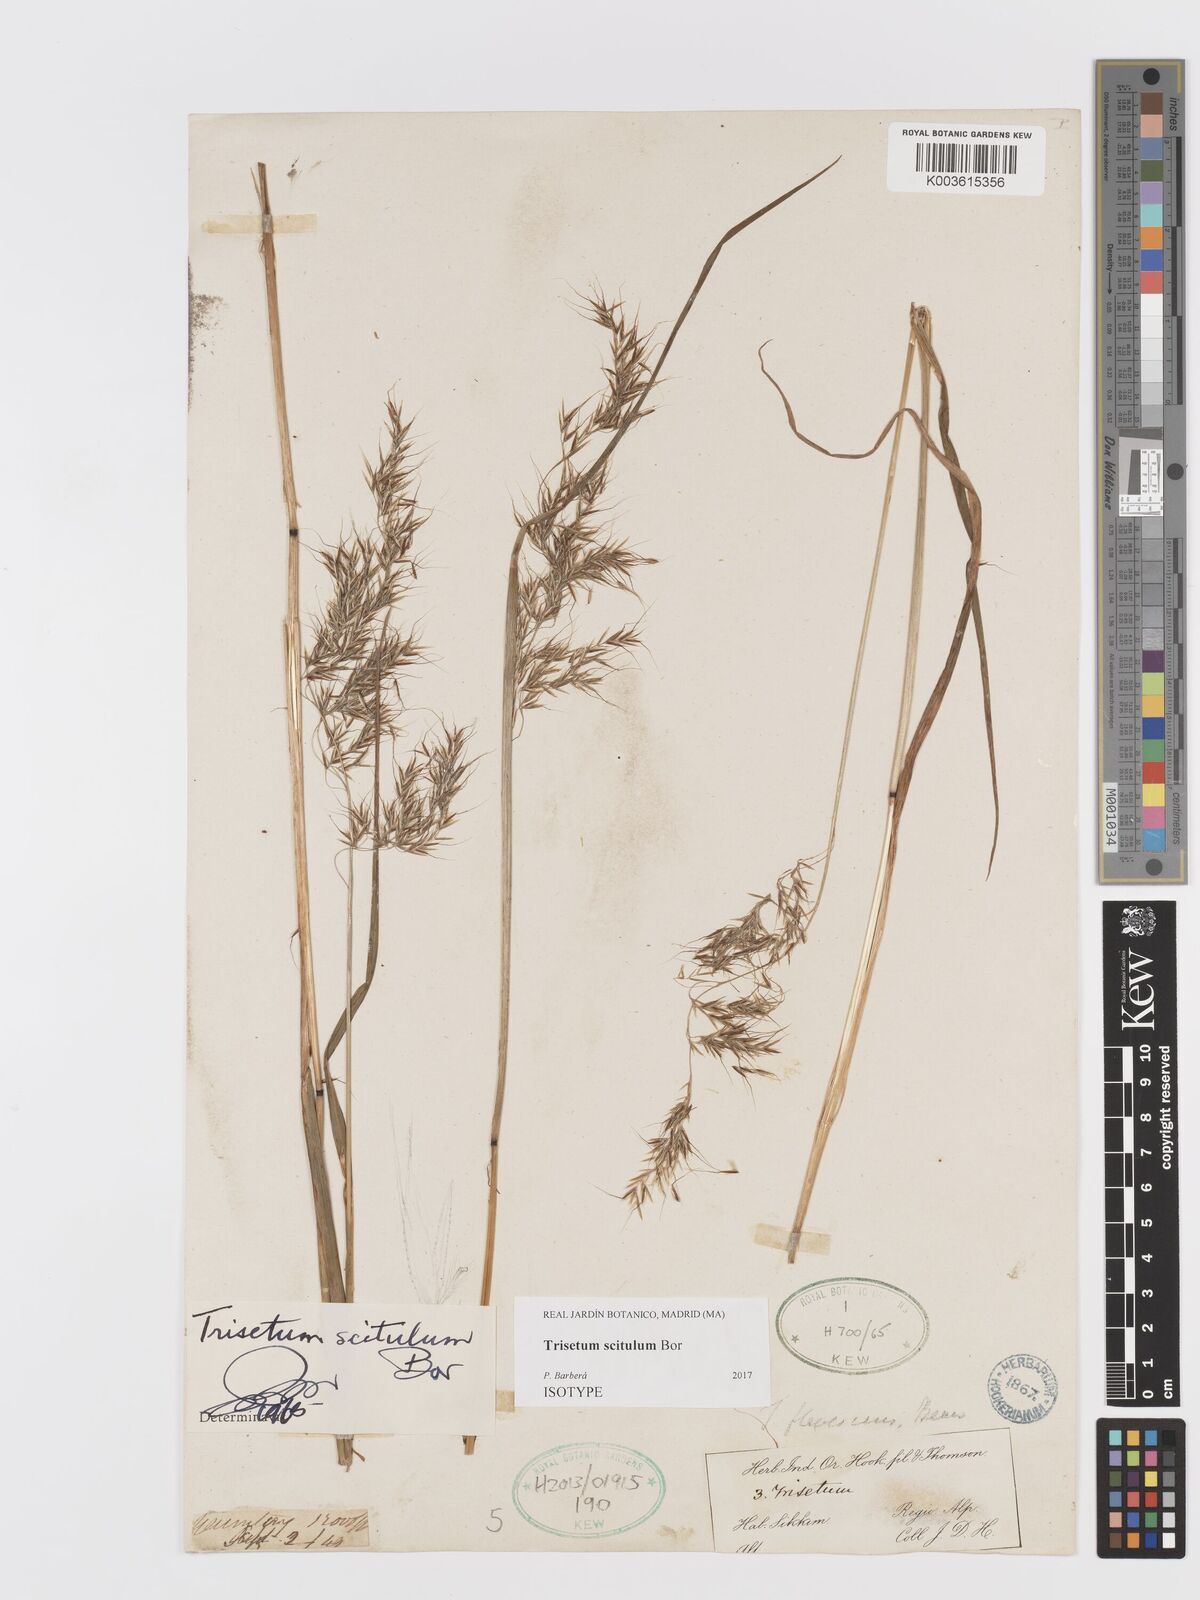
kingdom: Plantae
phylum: Tracheophyta
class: Liliopsida
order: Poales
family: Poaceae
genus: Sibirotrisetum
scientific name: Sibirotrisetum scitulum
